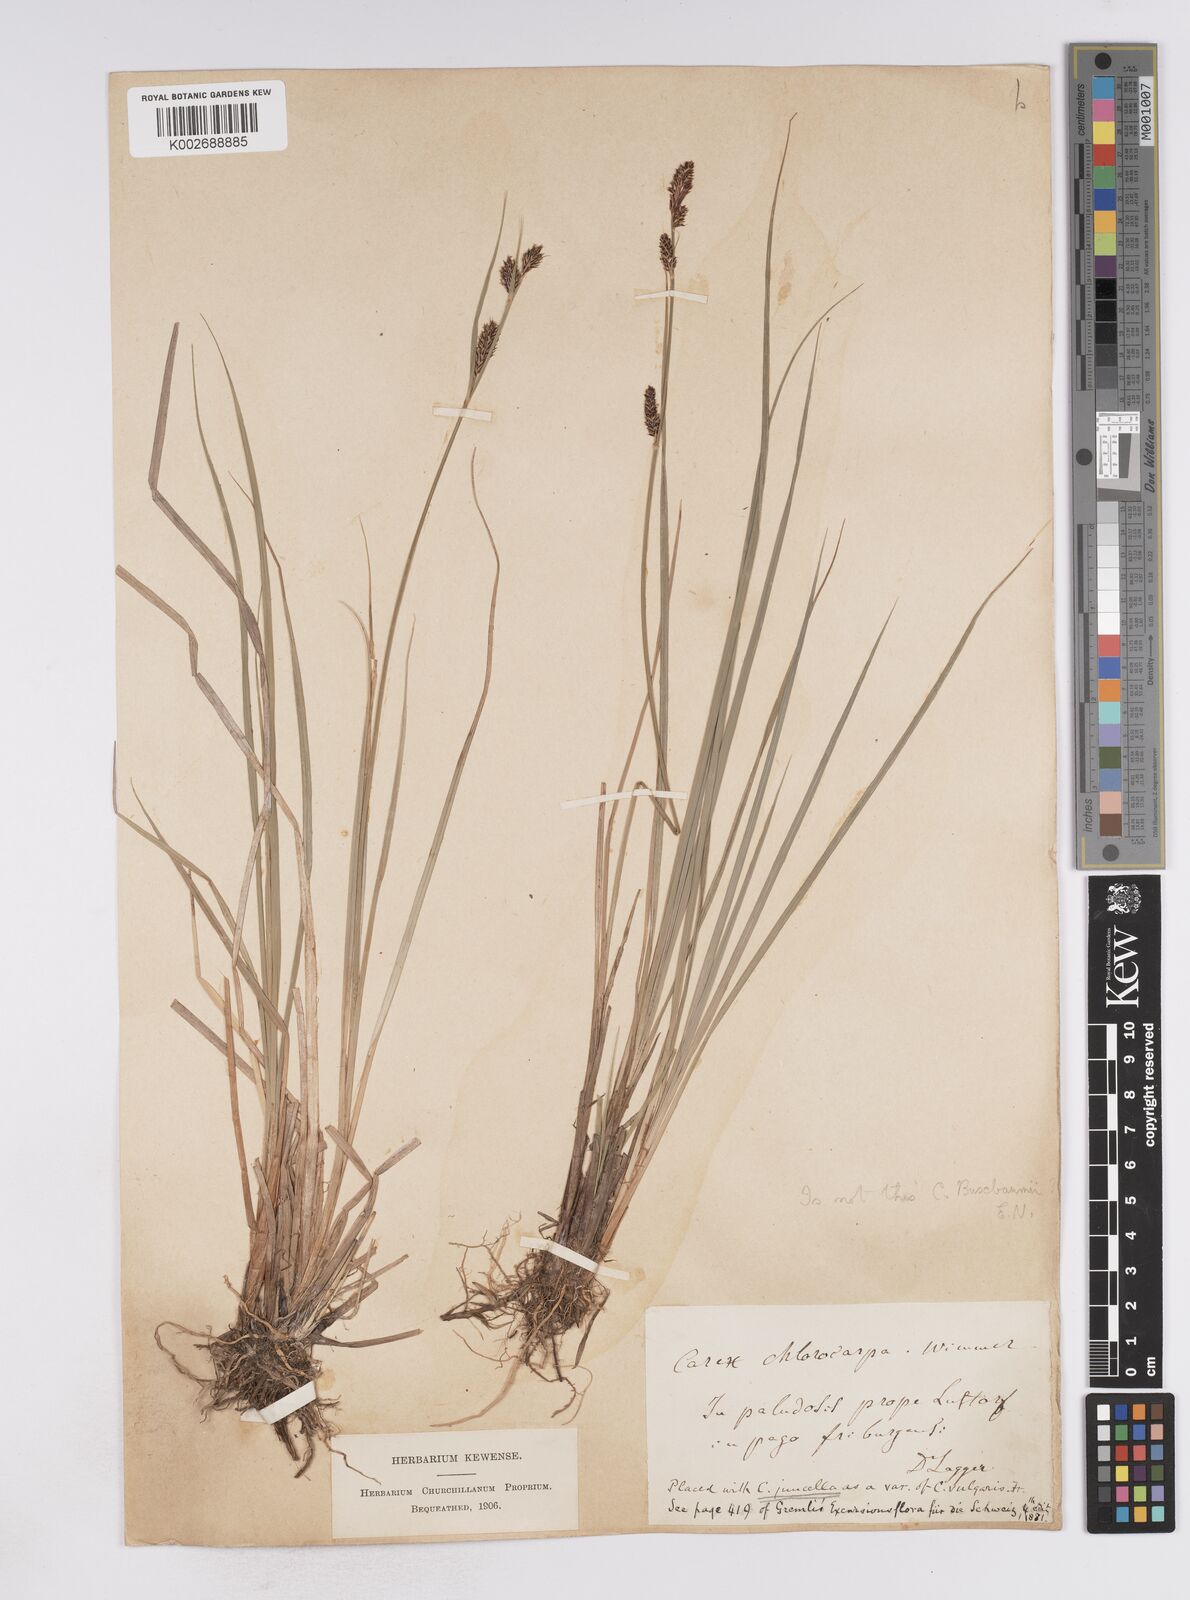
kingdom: Plantae
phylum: Tracheophyta
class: Liliopsida
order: Poales
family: Cyperaceae
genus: Carex
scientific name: Carex buxbaumii
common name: Club sedge
